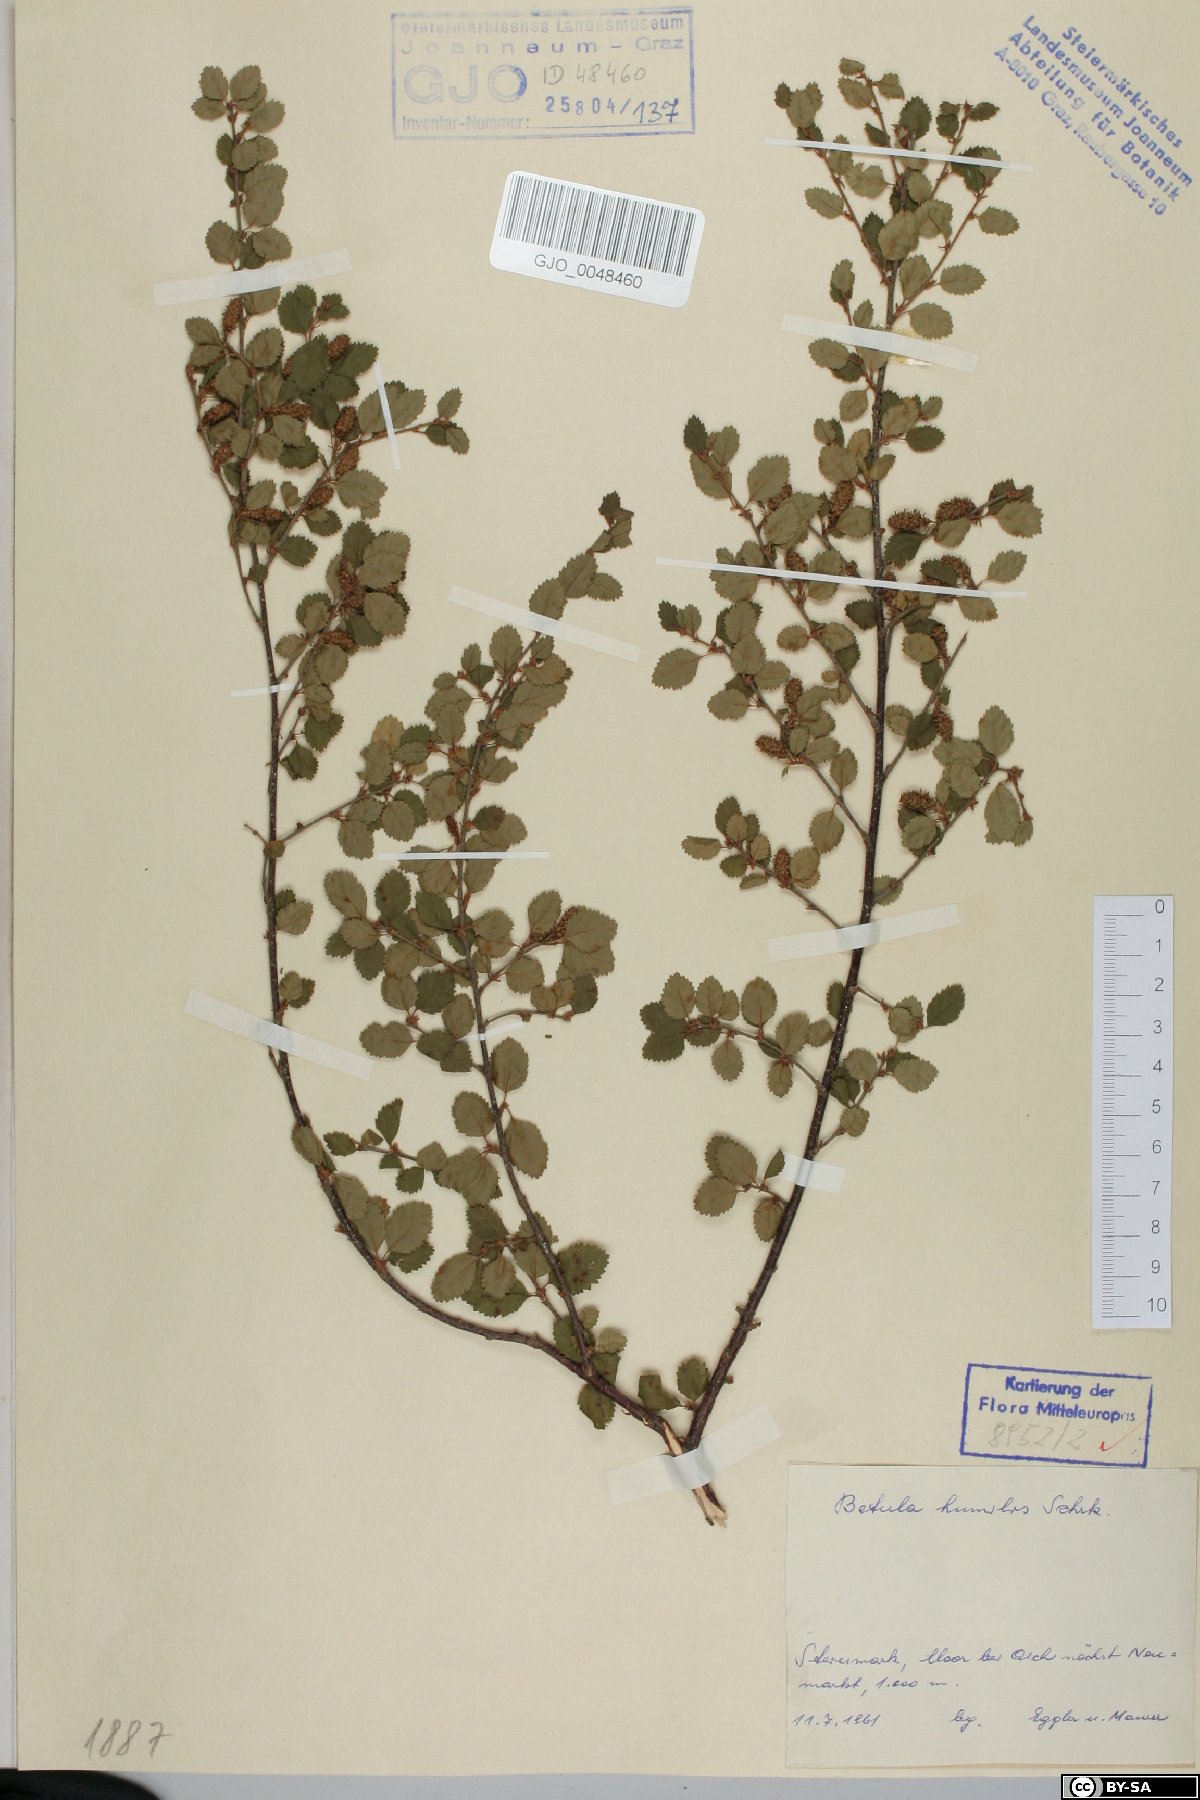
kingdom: Plantae
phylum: Tracheophyta
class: Magnoliopsida
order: Fagales
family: Betulaceae
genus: Betula
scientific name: Betula humilis
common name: Shrubby birch
